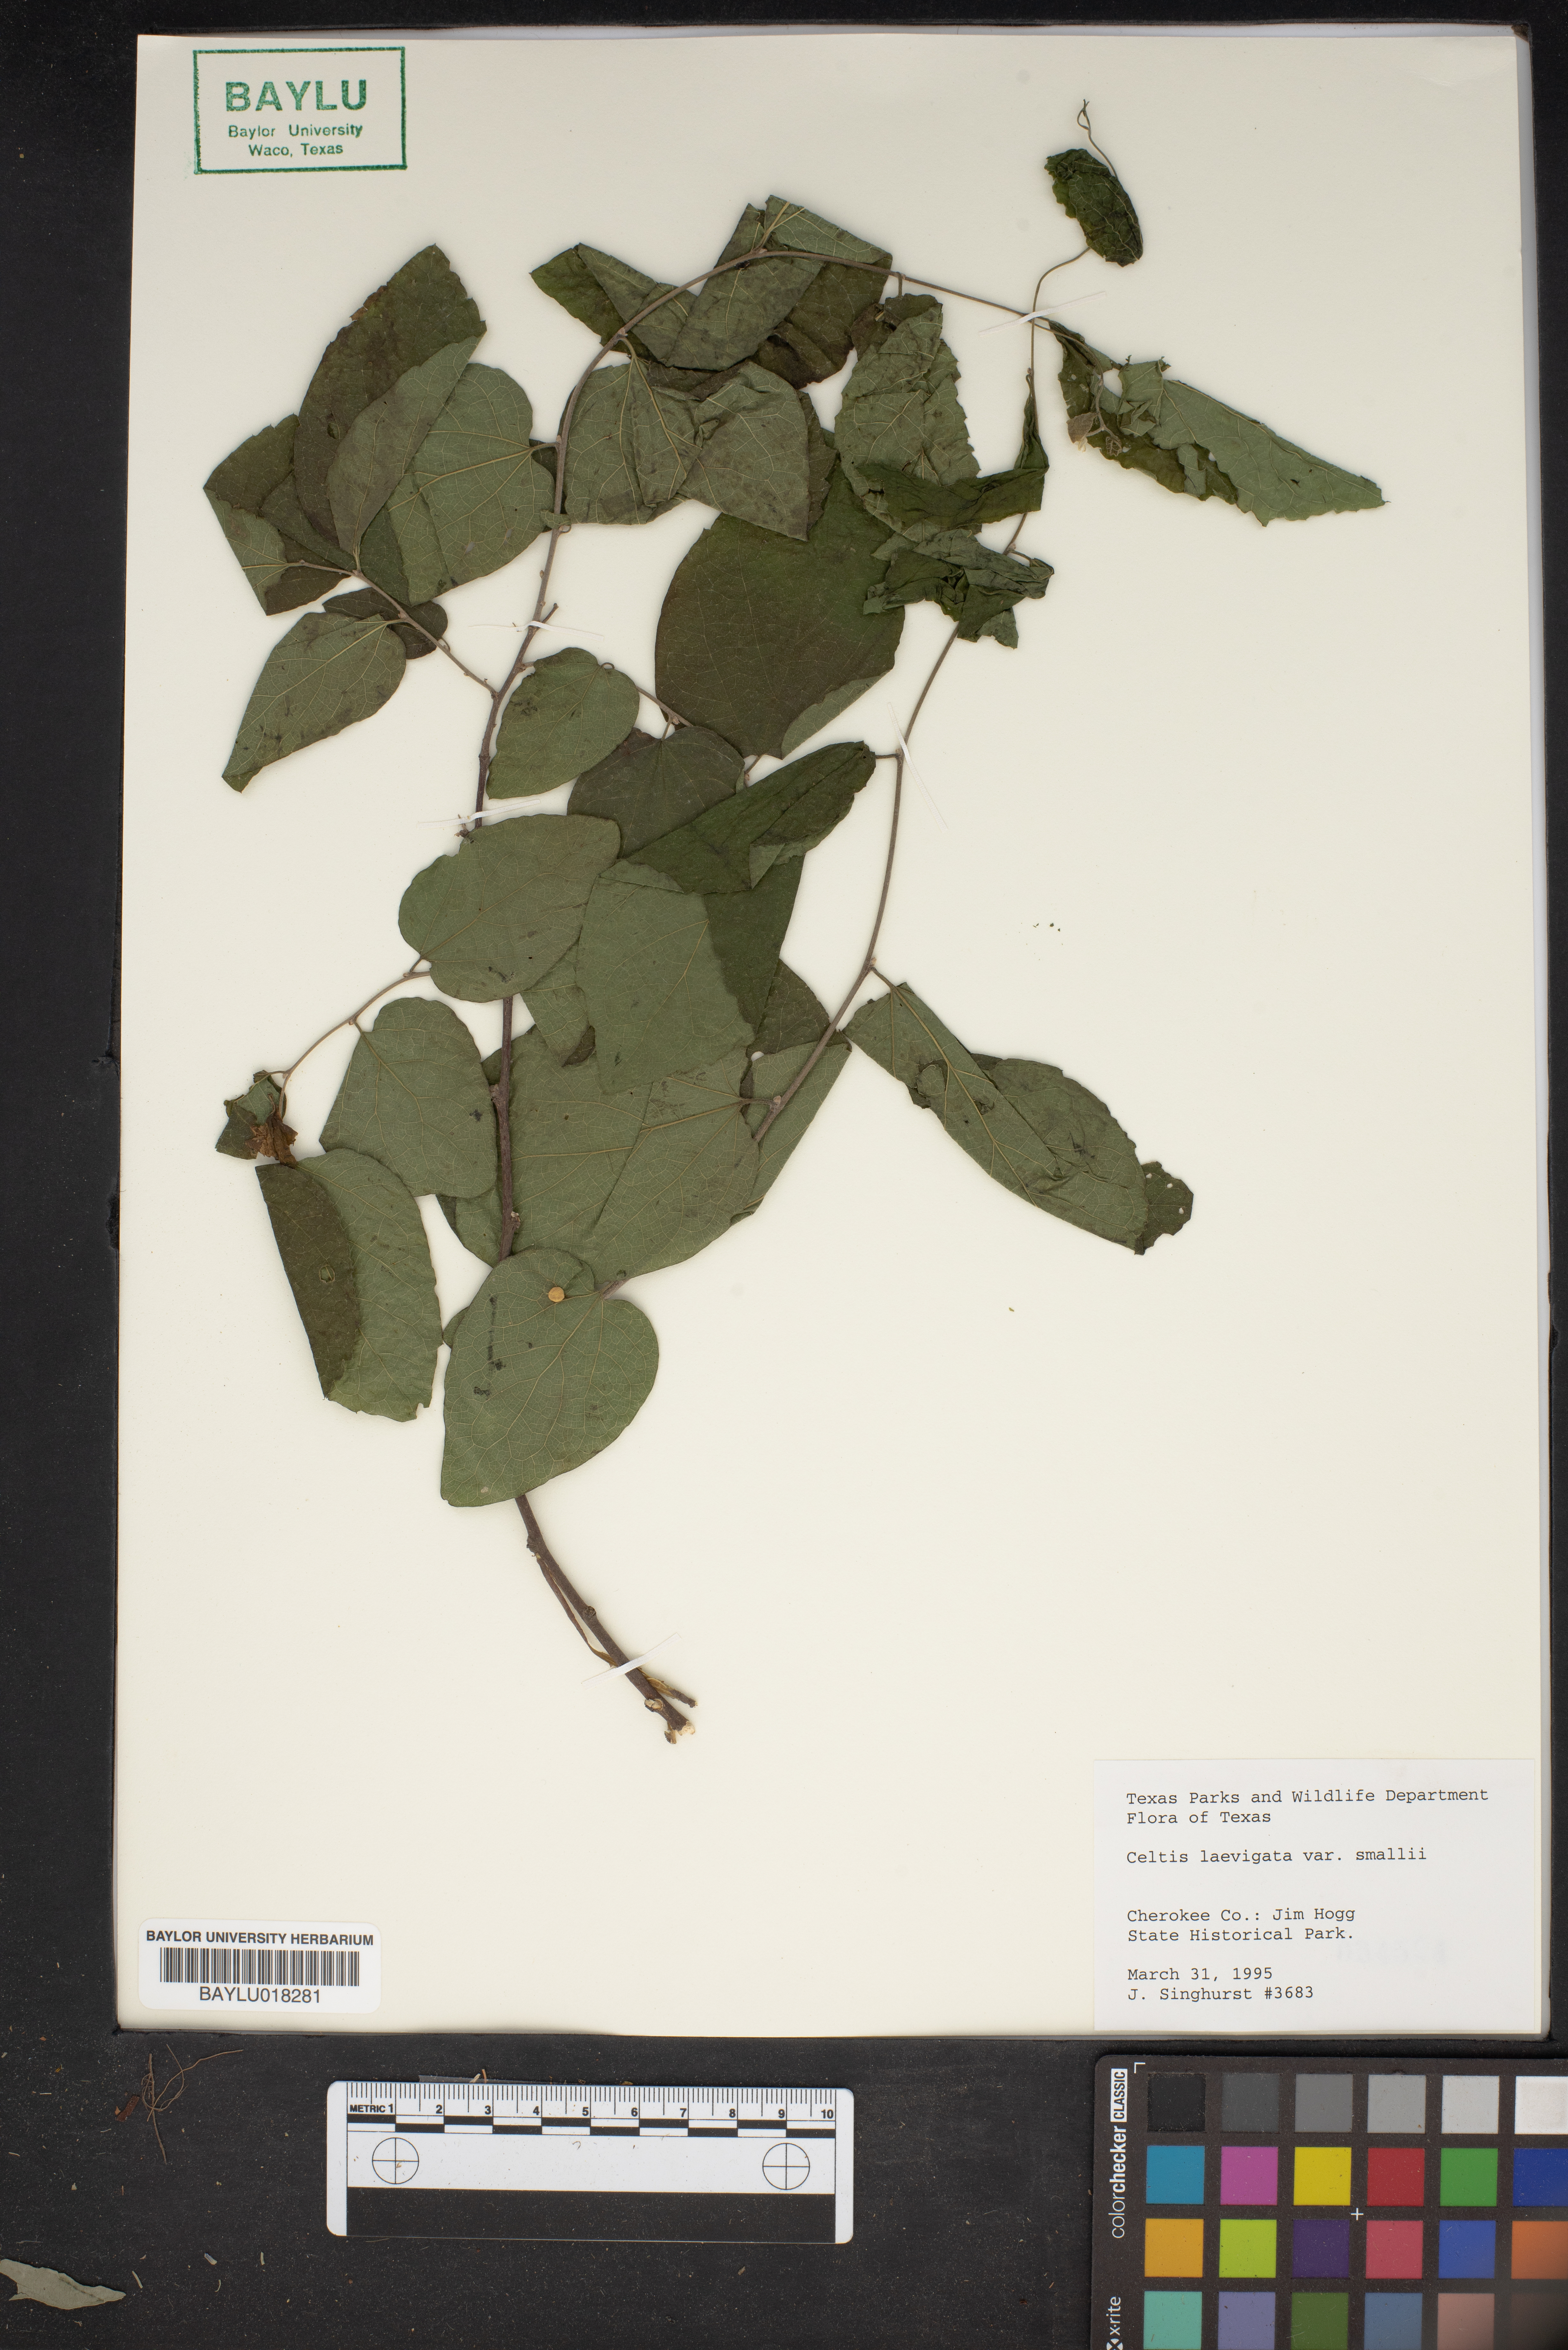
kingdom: Plantae
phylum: Tracheophyta
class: Magnoliopsida
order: Rosales
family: Cannabaceae
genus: Celtis
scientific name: Celtis
